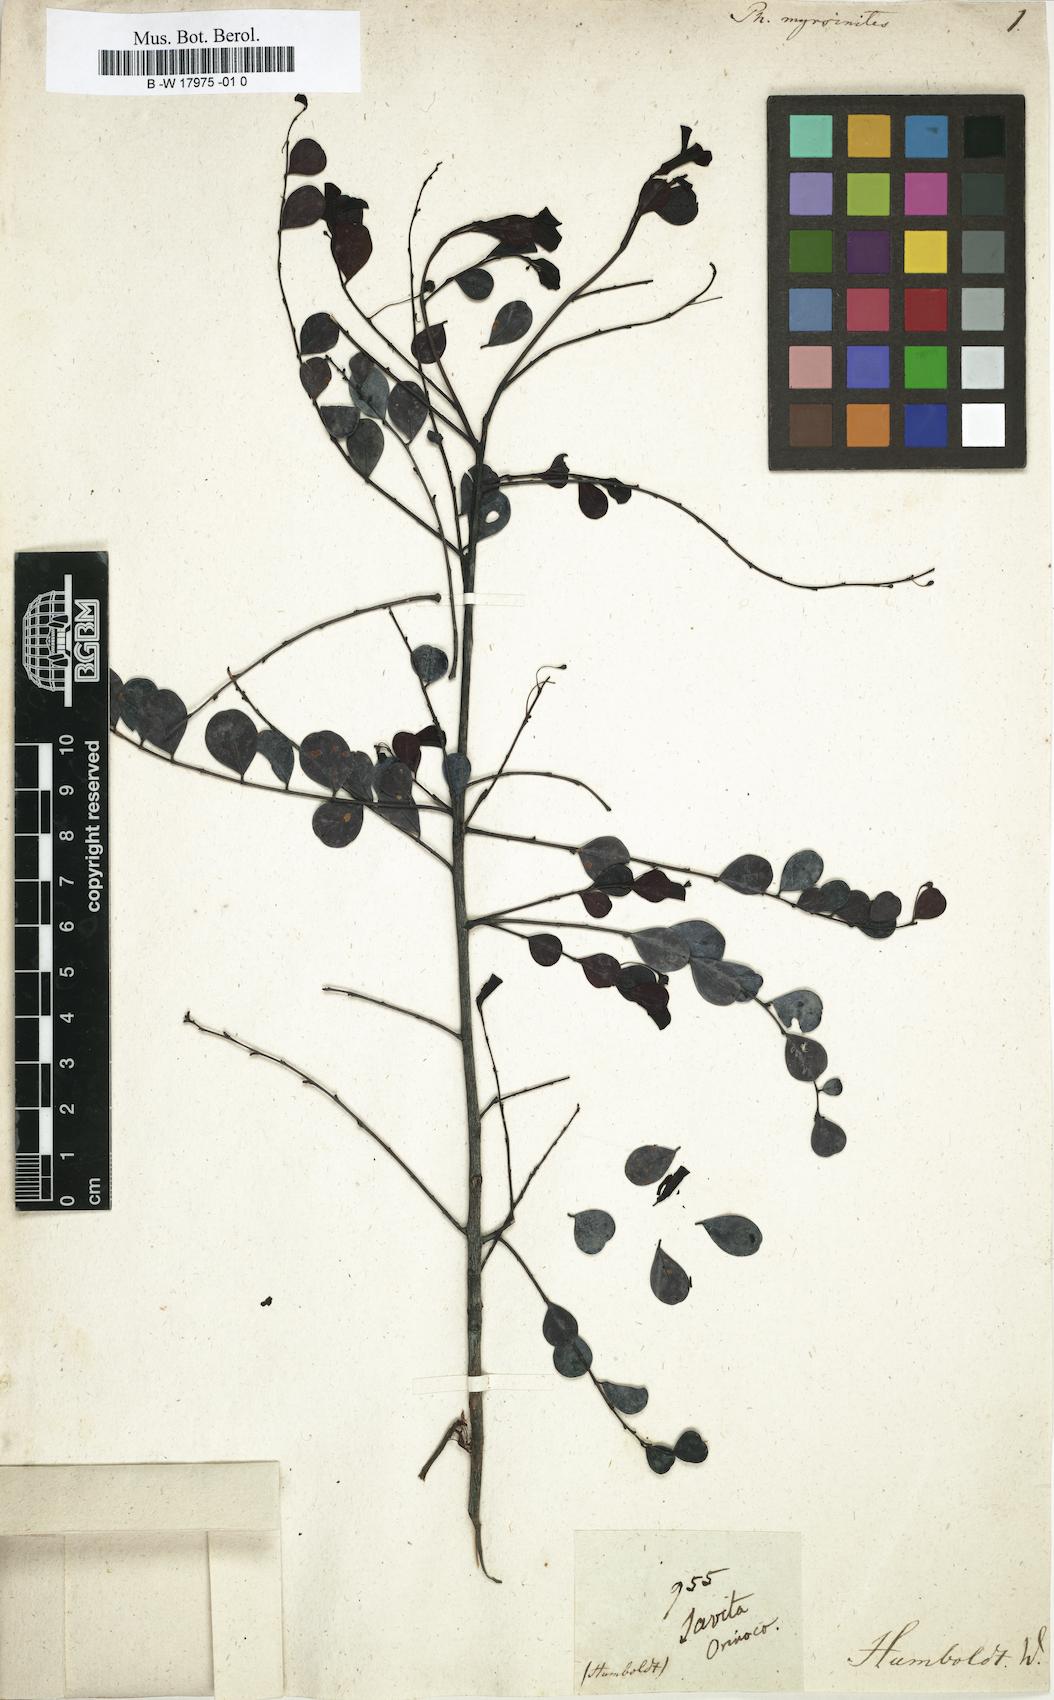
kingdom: Plantae
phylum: Tracheophyta
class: Magnoliopsida
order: Malpighiales
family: Phyllanthaceae
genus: Phyllanthus
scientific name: Phyllanthus myrsinites
